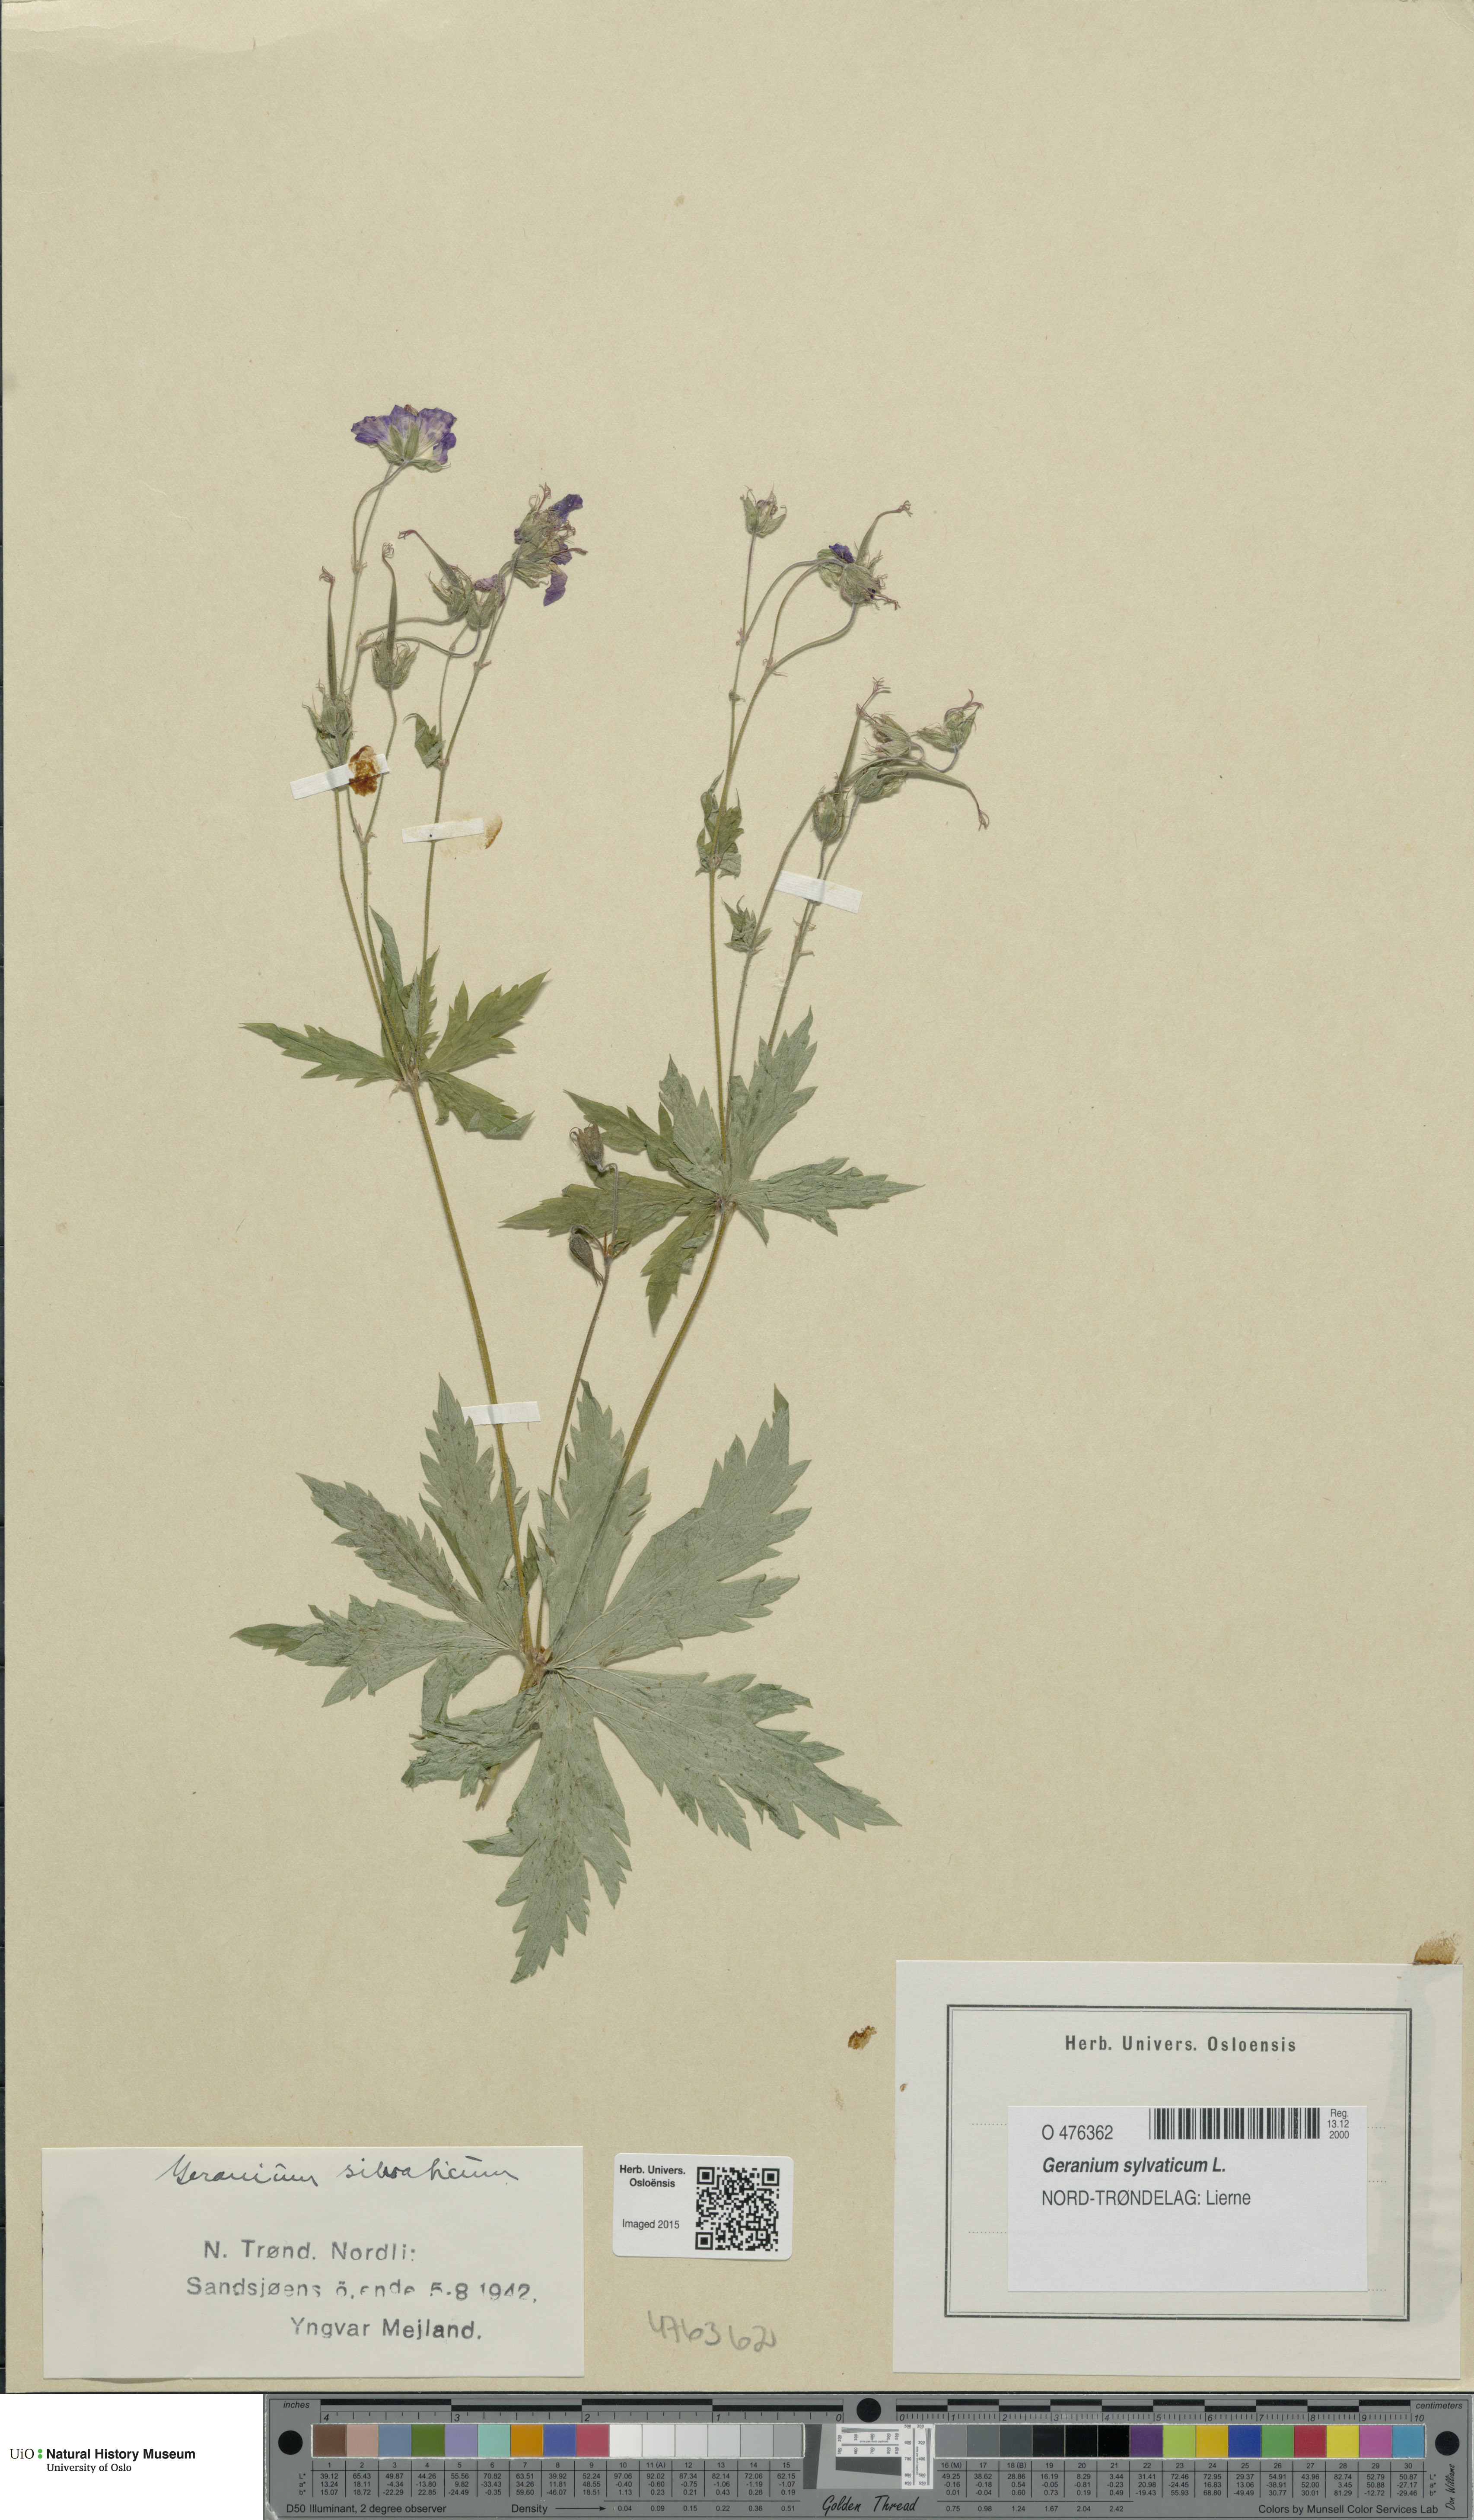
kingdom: Plantae
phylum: Tracheophyta
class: Magnoliopsida
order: Geraniales
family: Geraniaceae
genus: Geranium
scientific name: Geranium sylvaticum
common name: Wood crane's-bill
